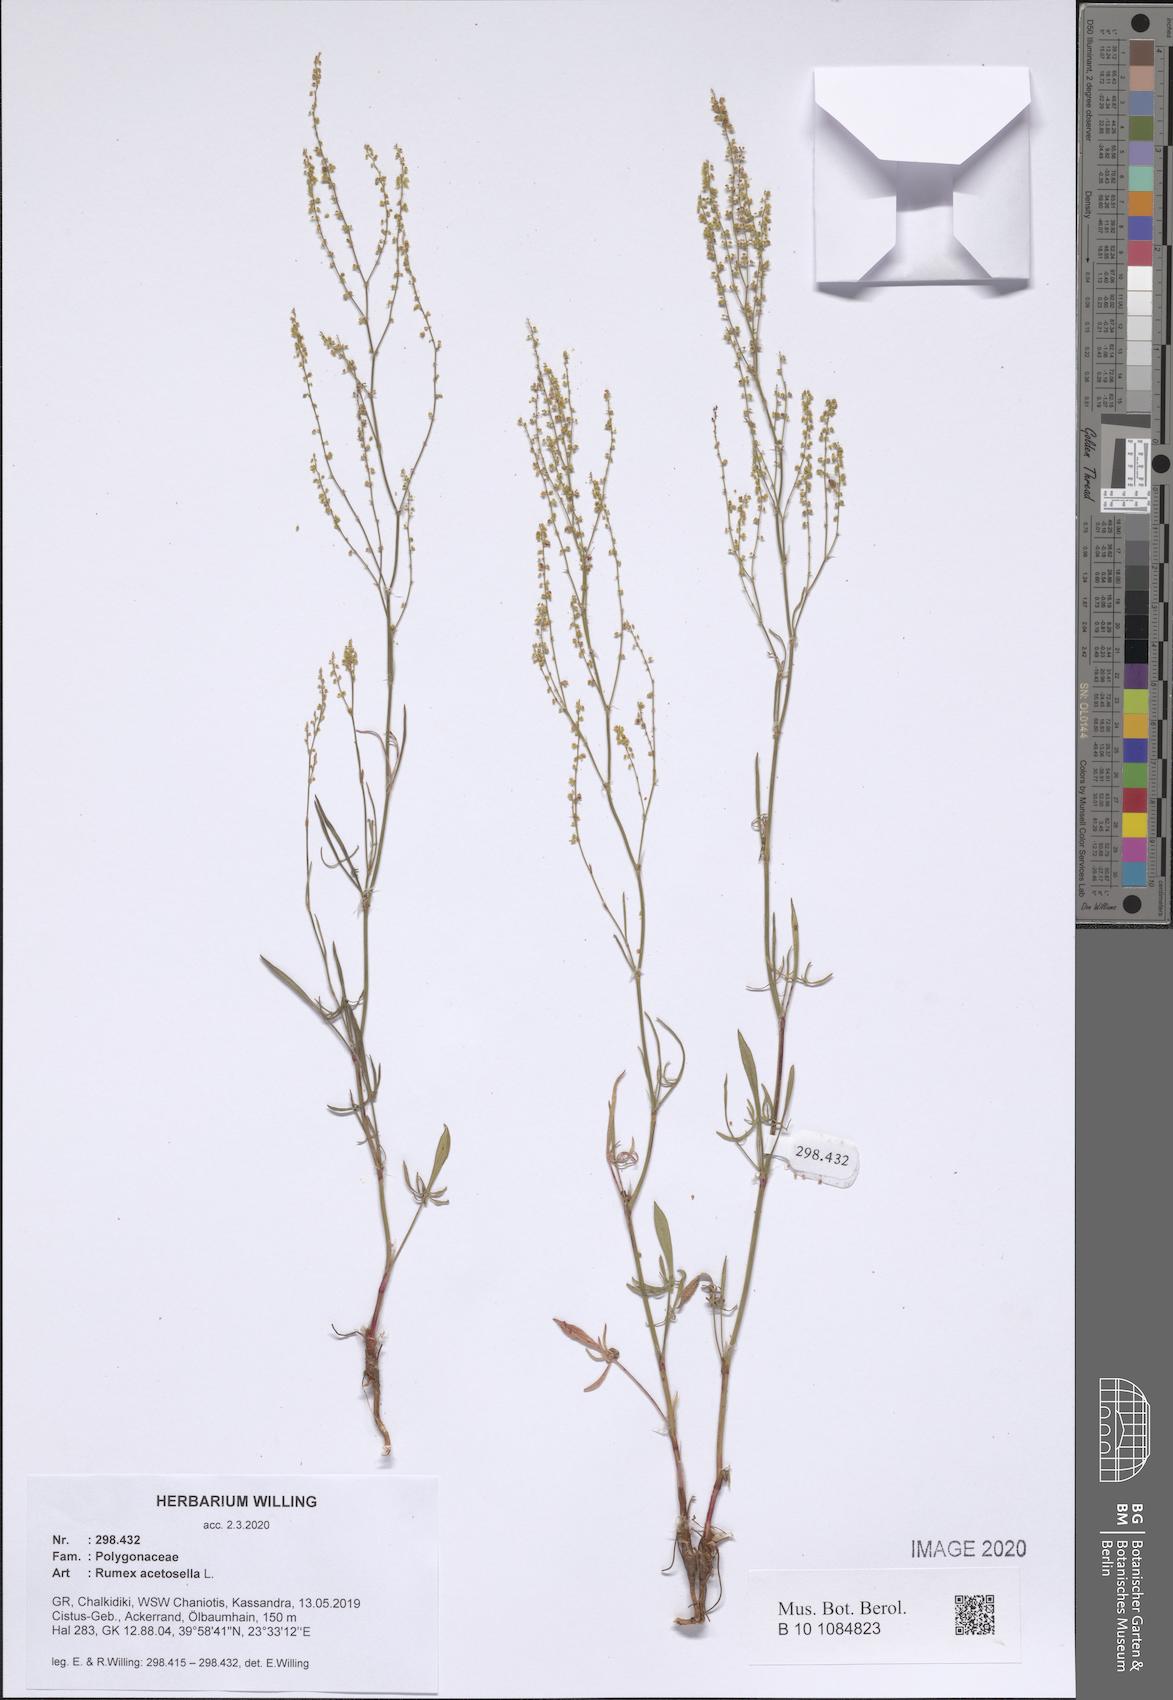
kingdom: Plantae
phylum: Tracheophyta
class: Magnoliopsida
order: Caryophyllales
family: Polygonaceae
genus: Rumex
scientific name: Rumex acetosella
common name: Common sheep sorrel
